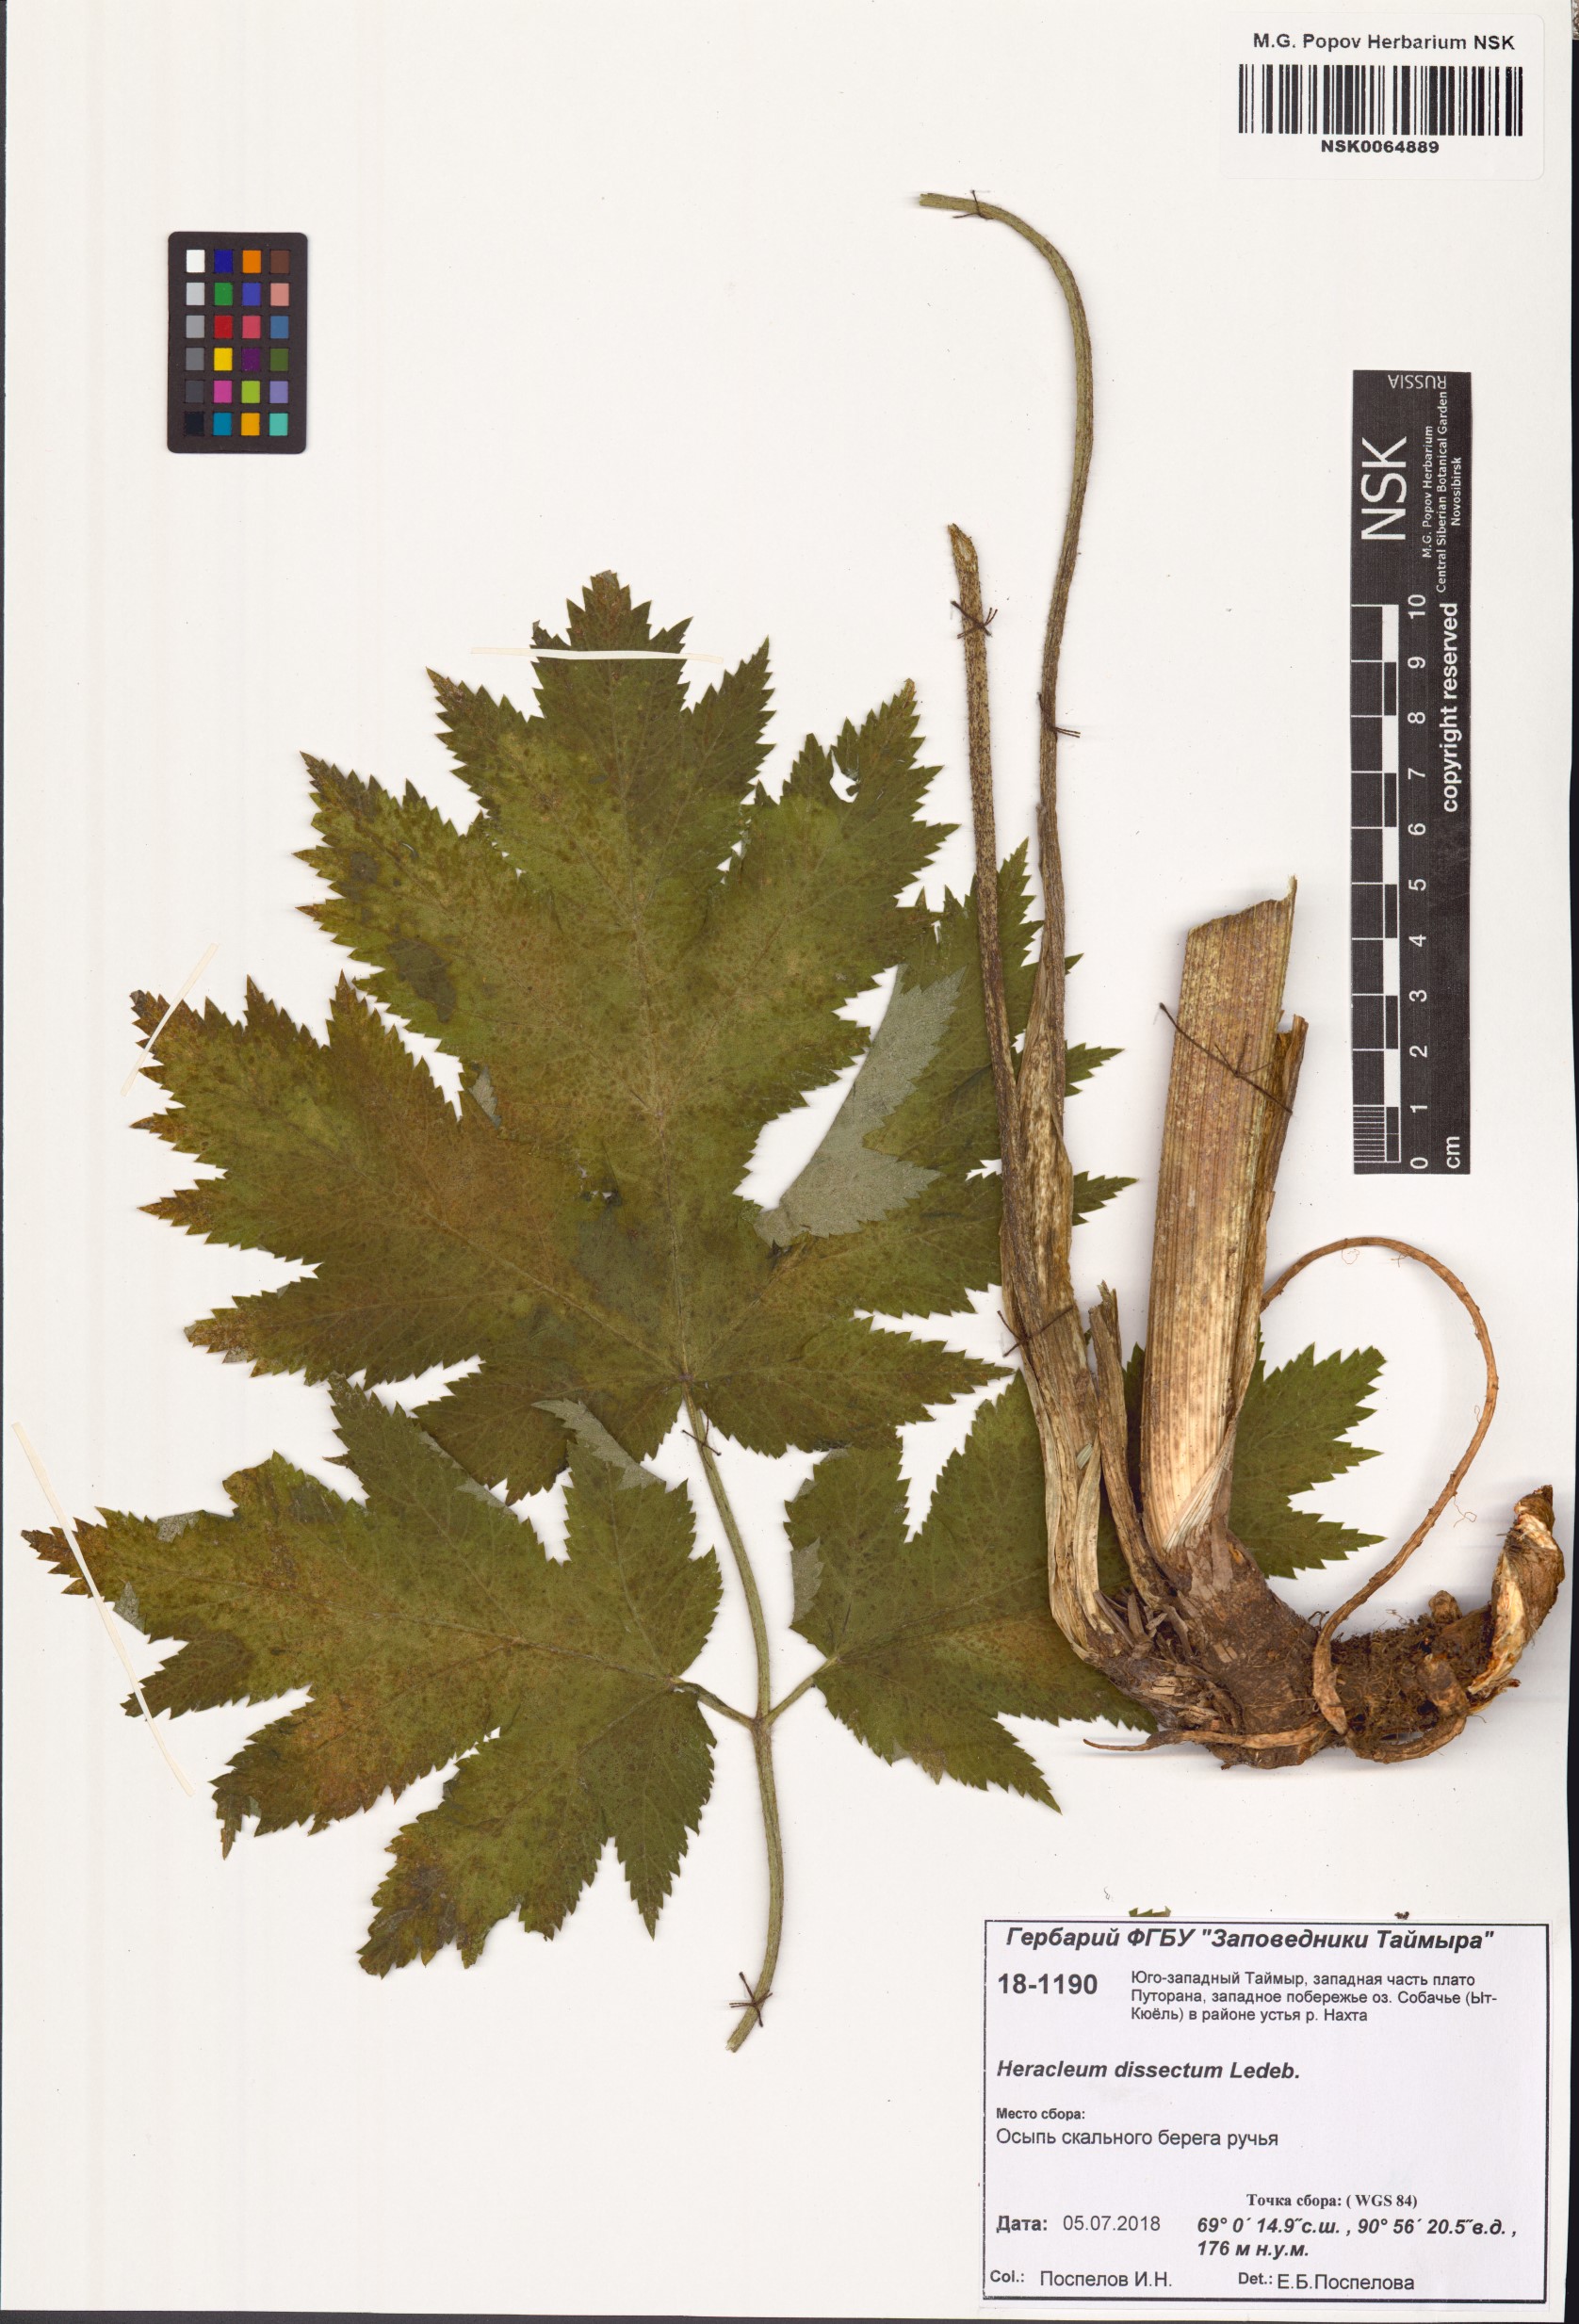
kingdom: Plantae
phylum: Tracheophyta
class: Magnoliopsida
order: Apiales
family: Apiaceae
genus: Heracleum
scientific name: Heracleum dissectum
